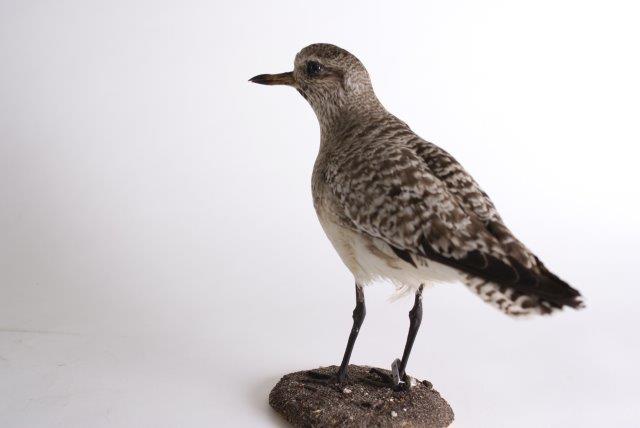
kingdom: Animalia
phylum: Chordata
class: Aves
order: Charadriiformes
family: Charadriidae
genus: Pluvialis
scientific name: Pluvialis squatarola
